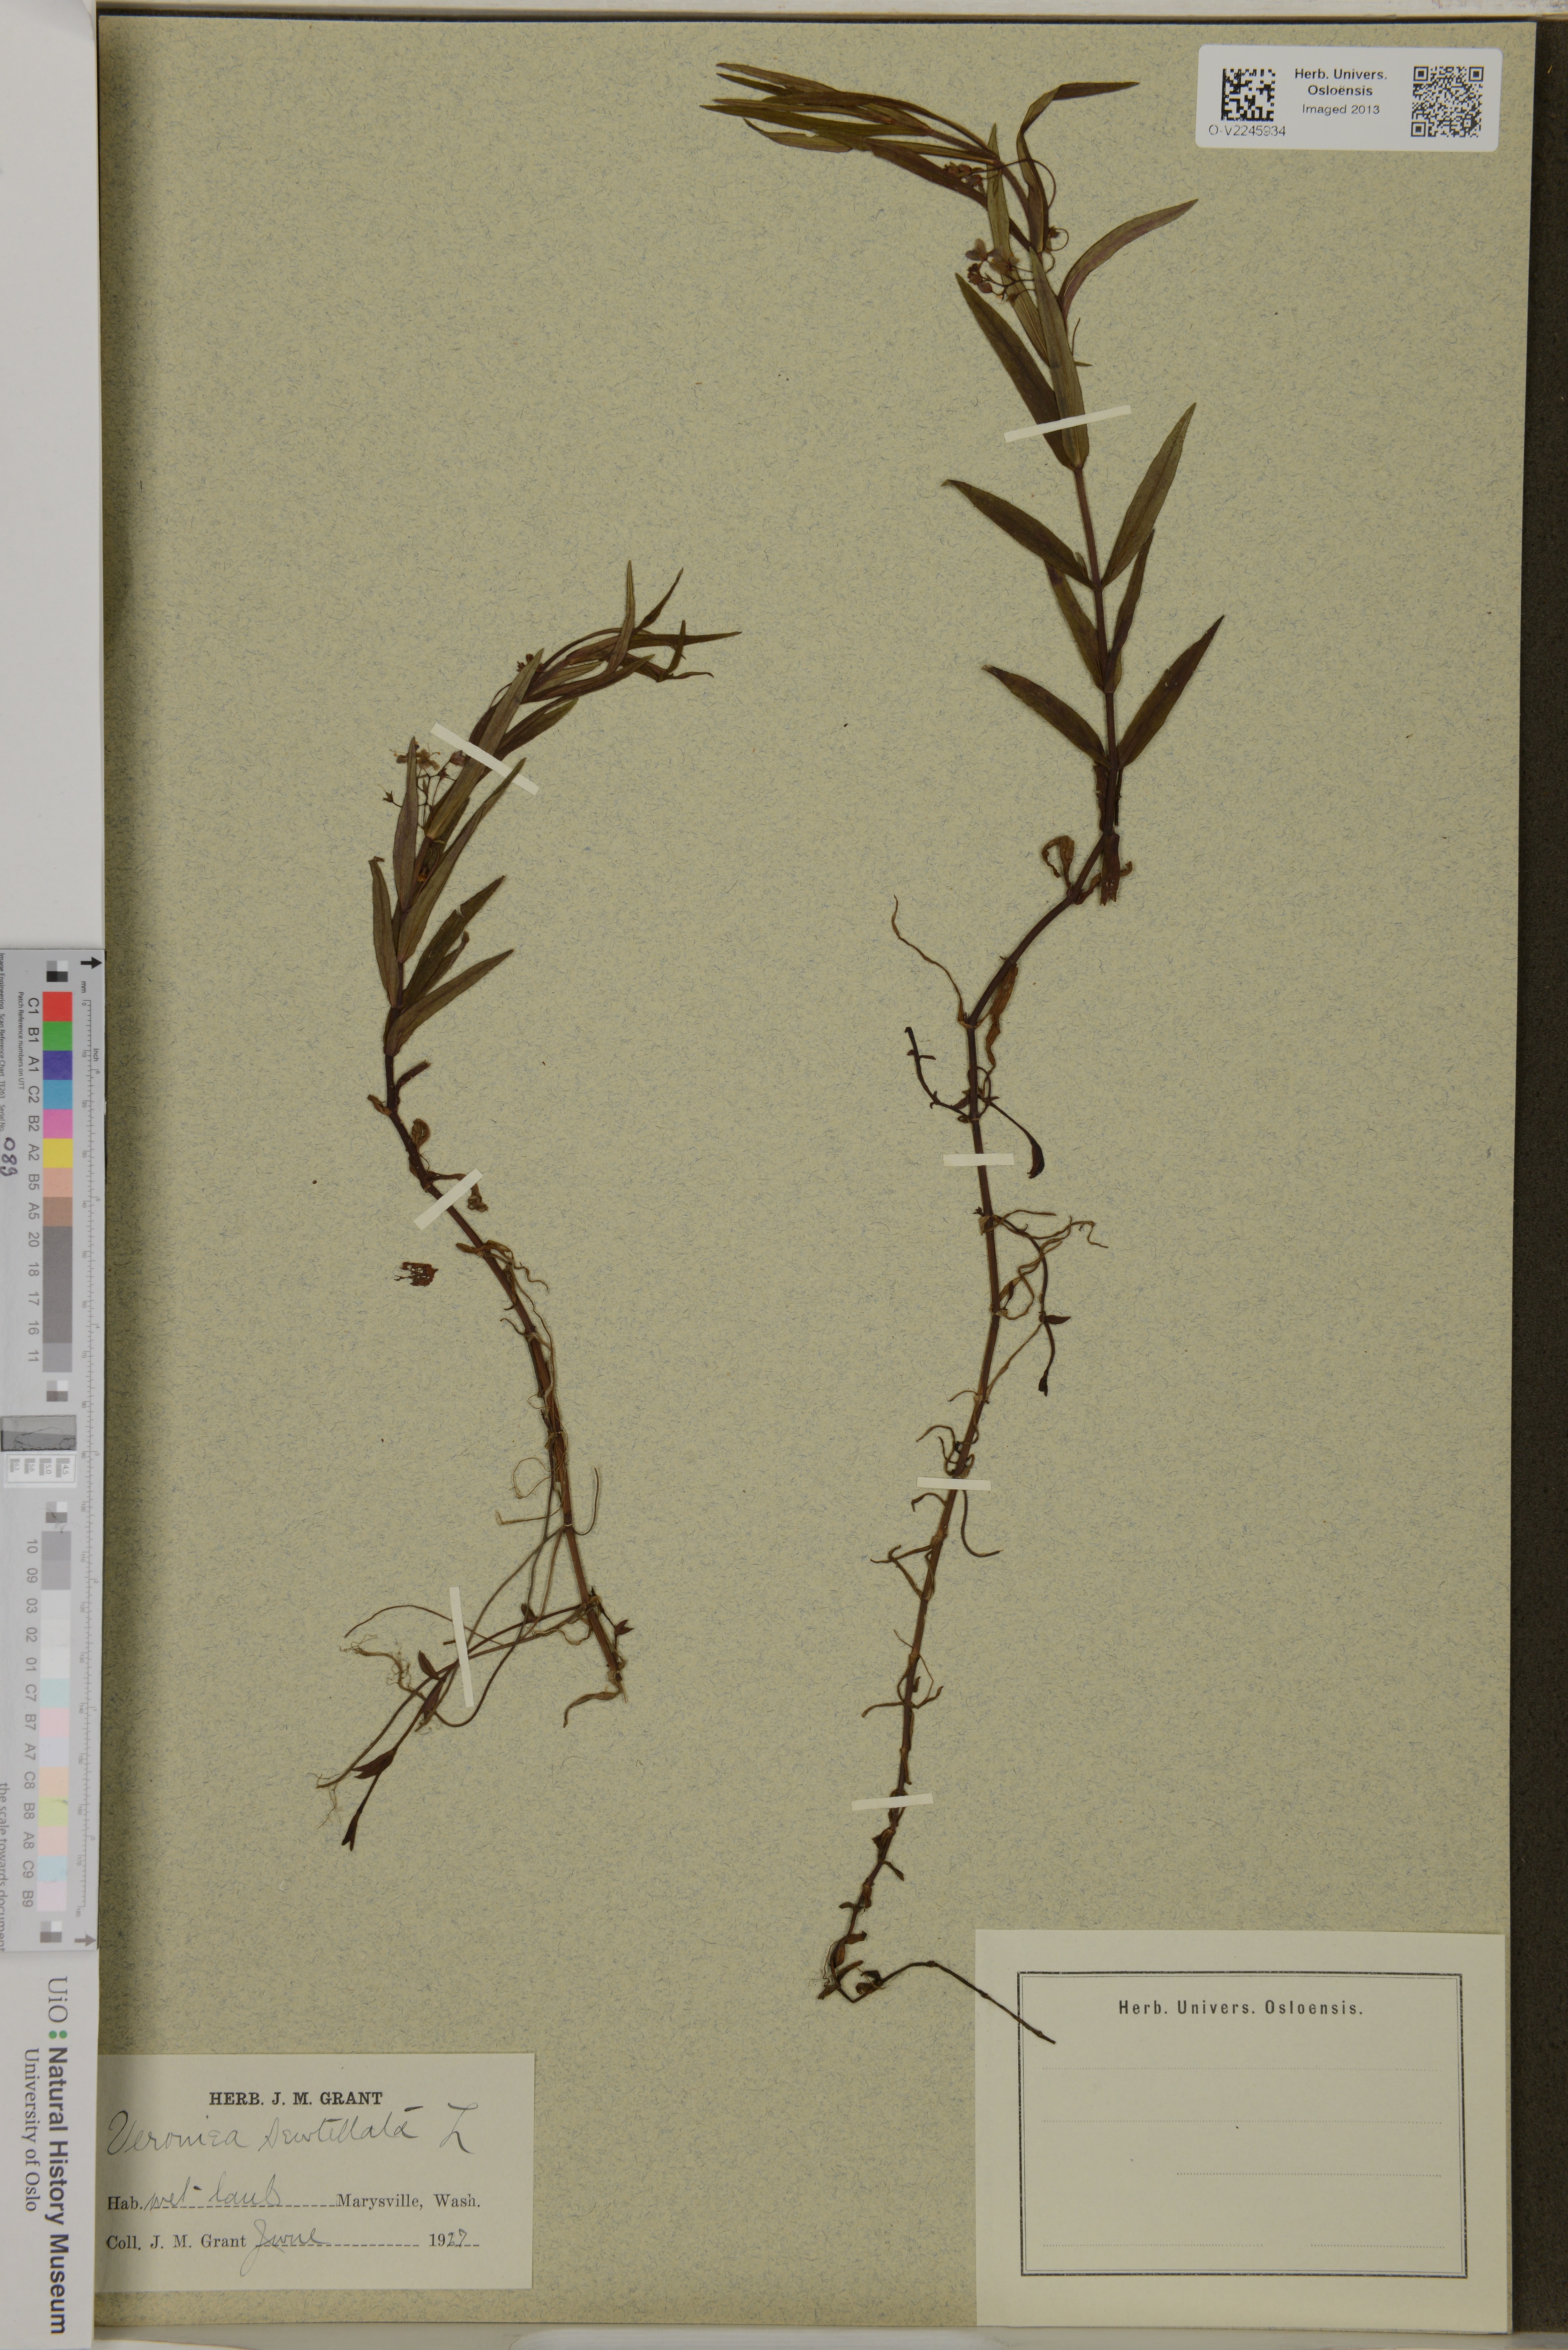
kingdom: Plantae
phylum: Tracheophyta
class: Magnoliopsida
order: Lamiales
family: Plantaginaceae
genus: Veronica
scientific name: Veronica scutellata
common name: Marsh speedwell
